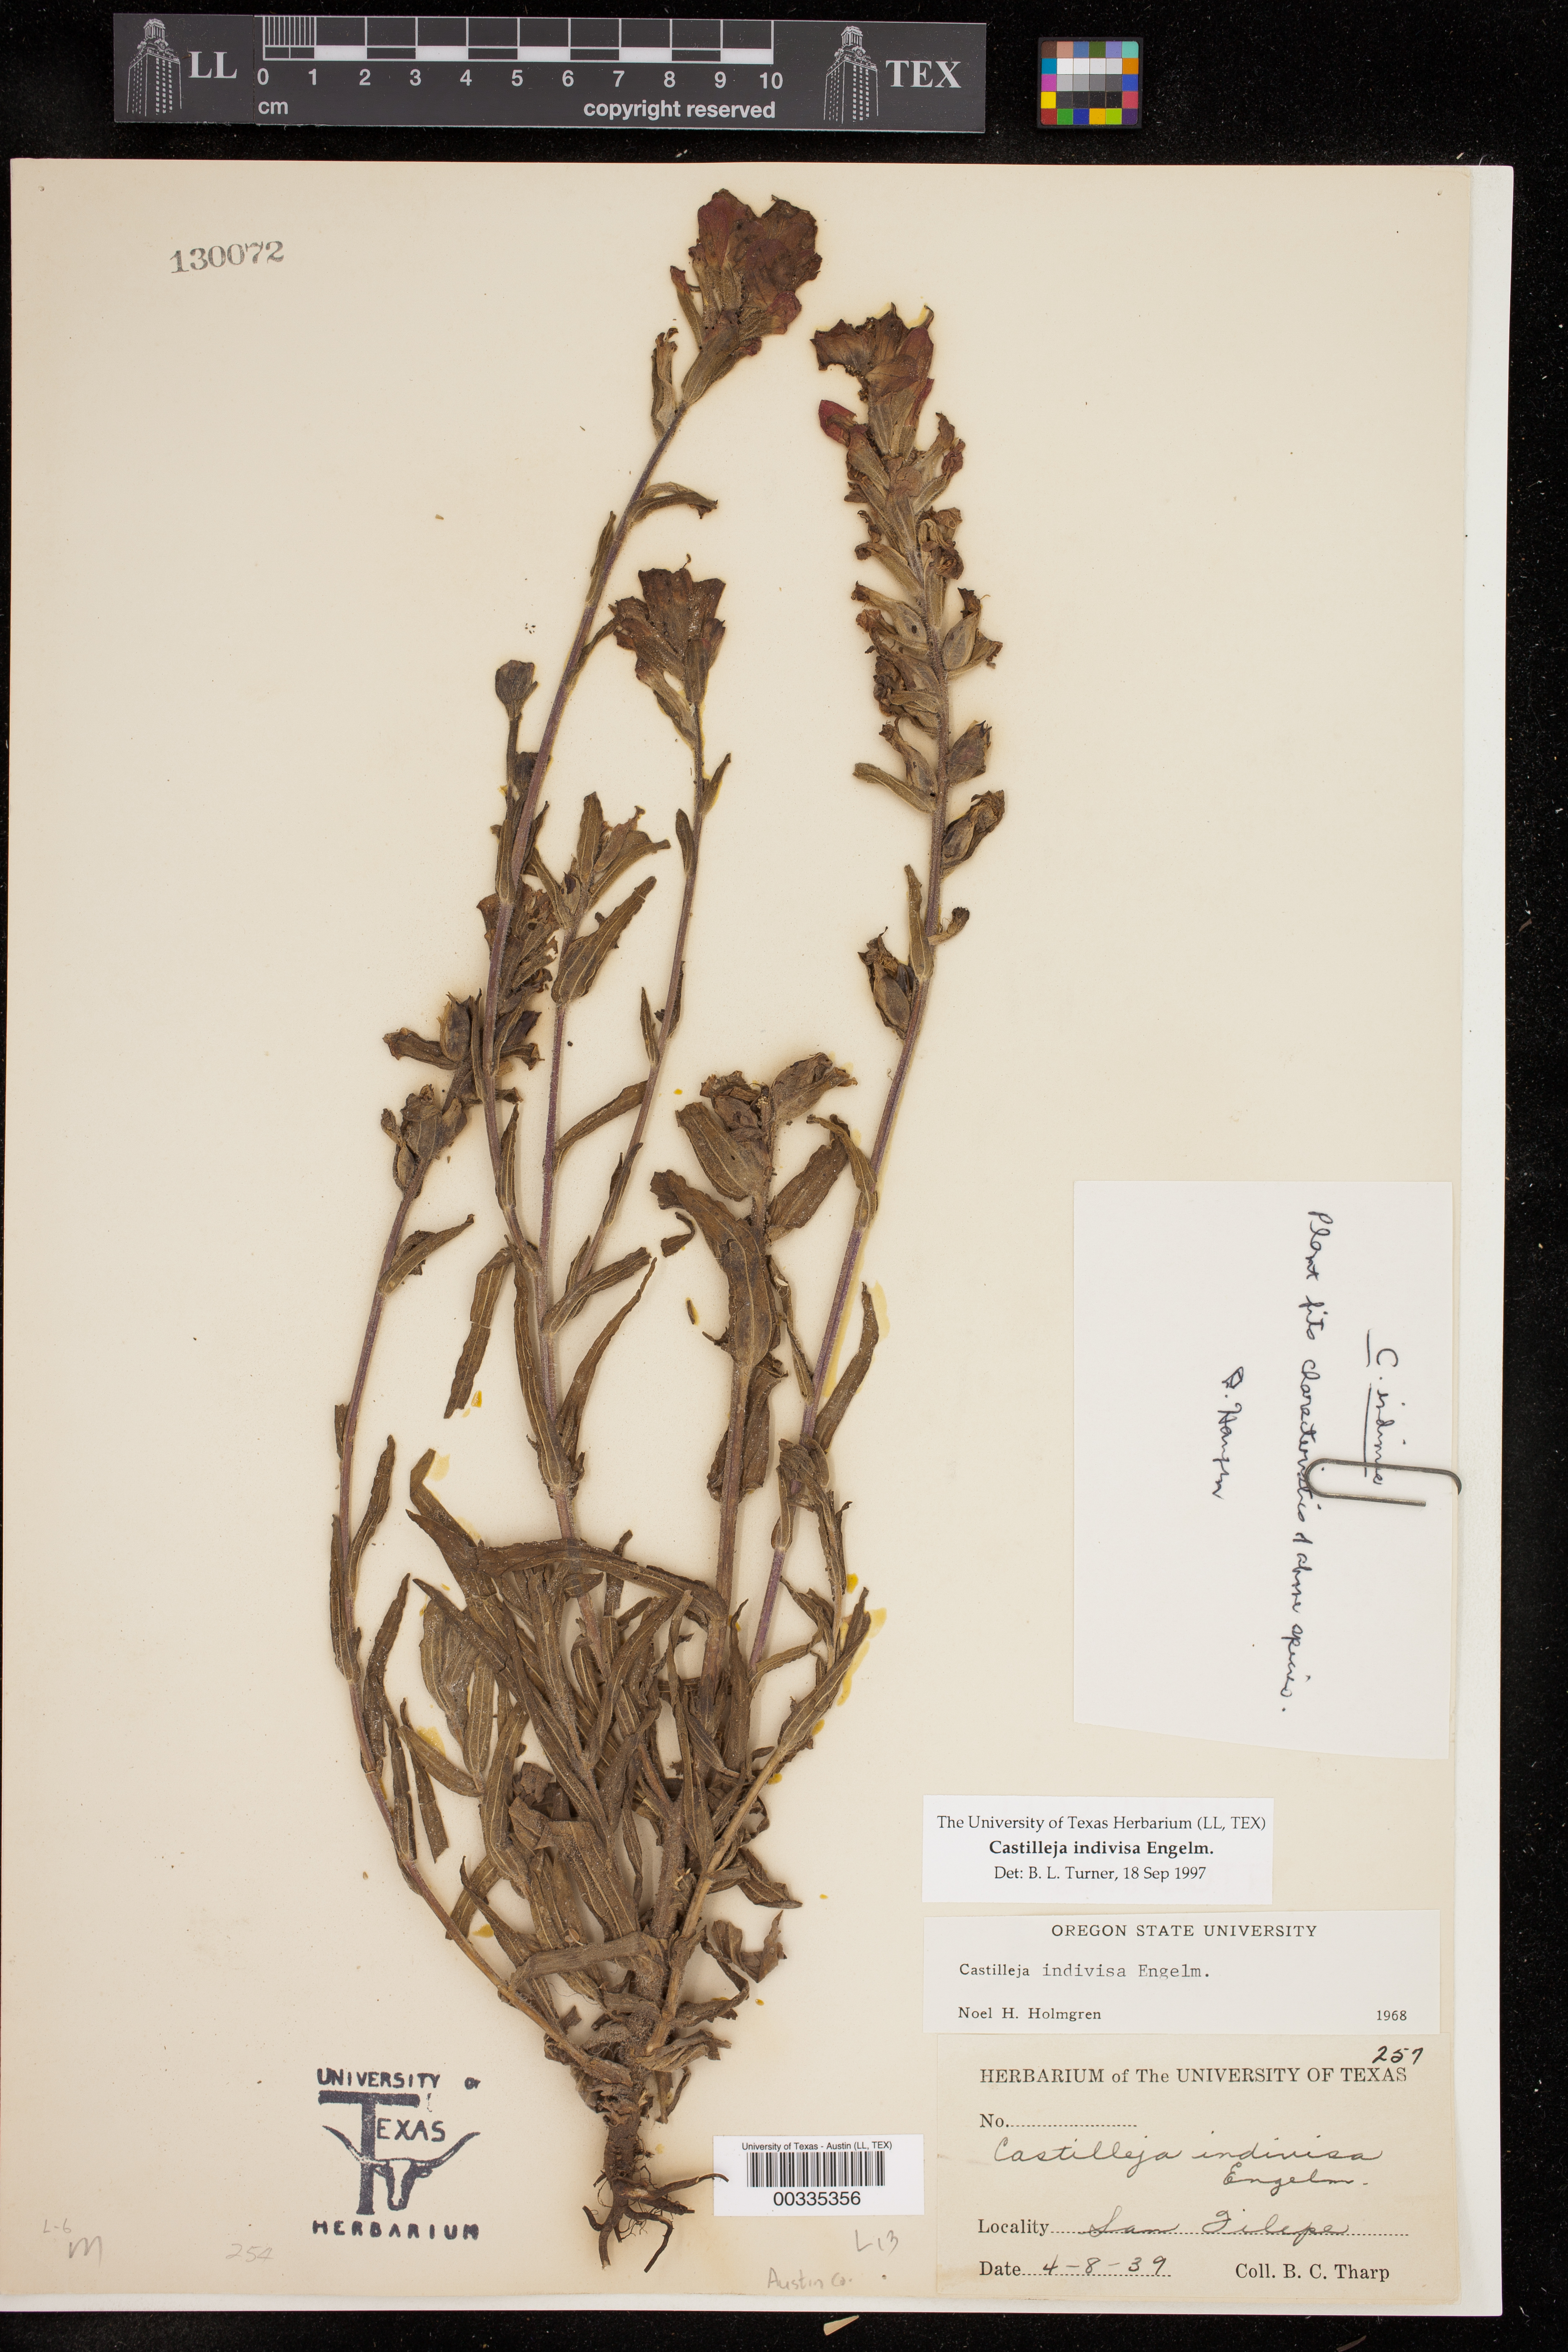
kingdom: Plantae
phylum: Tracheophyta
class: Magnoliopsida
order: Lamiales
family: Orobanchaceae
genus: Castilleja
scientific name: Castilleja indivisa
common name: Texas paintbrush
